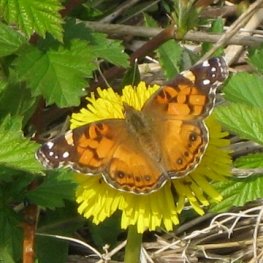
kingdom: Animalia
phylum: Arthropoda
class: Insecta
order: Lepidoptera
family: Nymphalidae
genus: Vanessa
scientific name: Vanessa virginiensis
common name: American Lady
